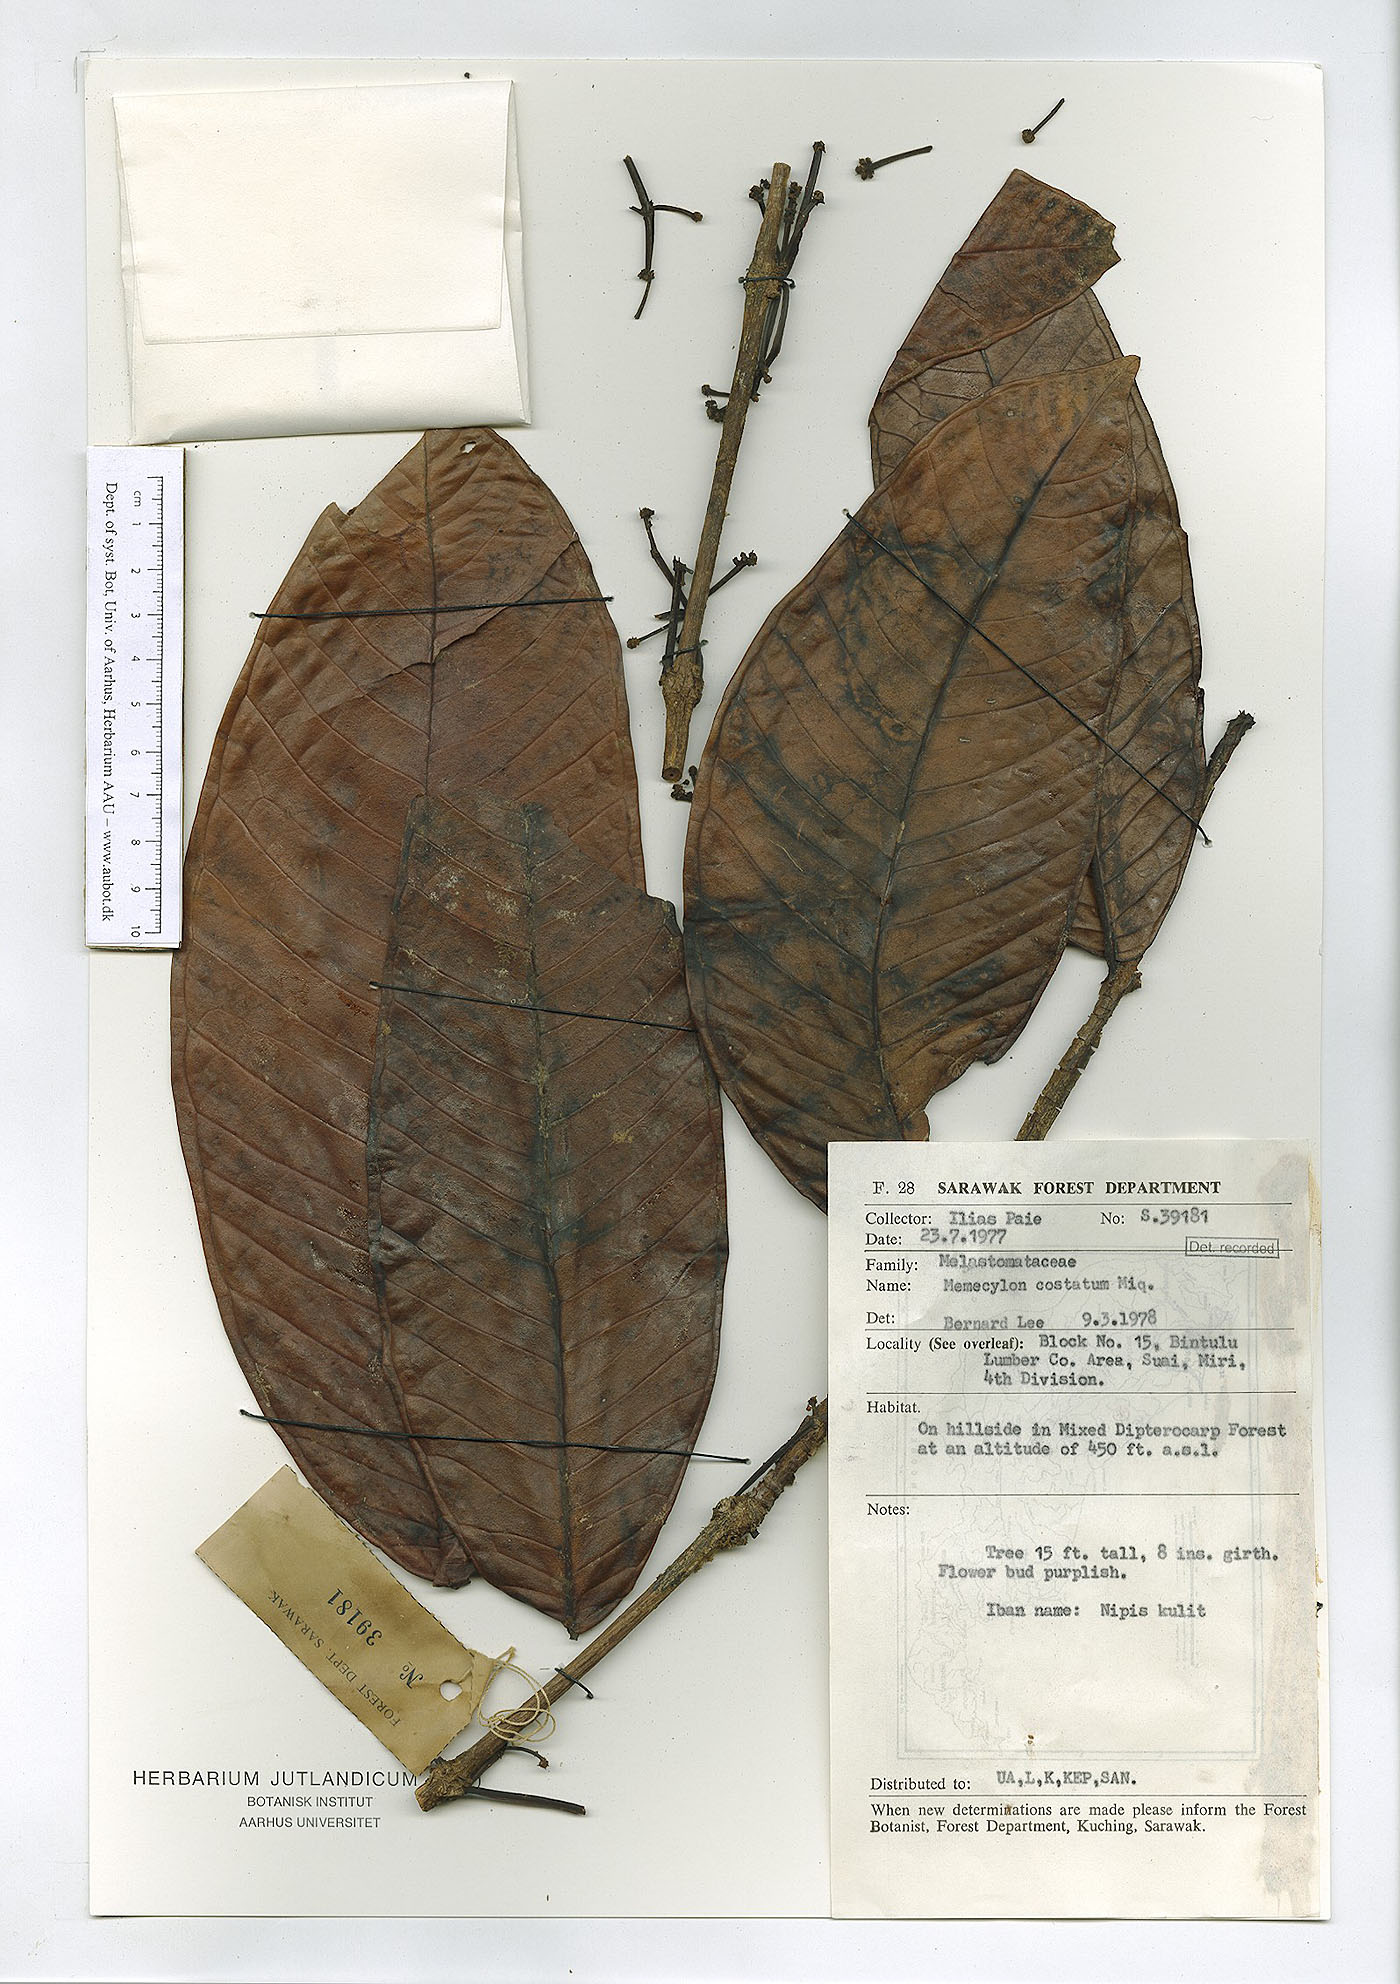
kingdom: Plantae
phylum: Tracheophyta
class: Magnoliopsida
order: Myrtales
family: Melastomataceae
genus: Memecylon
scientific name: Memecylon paniculatum
